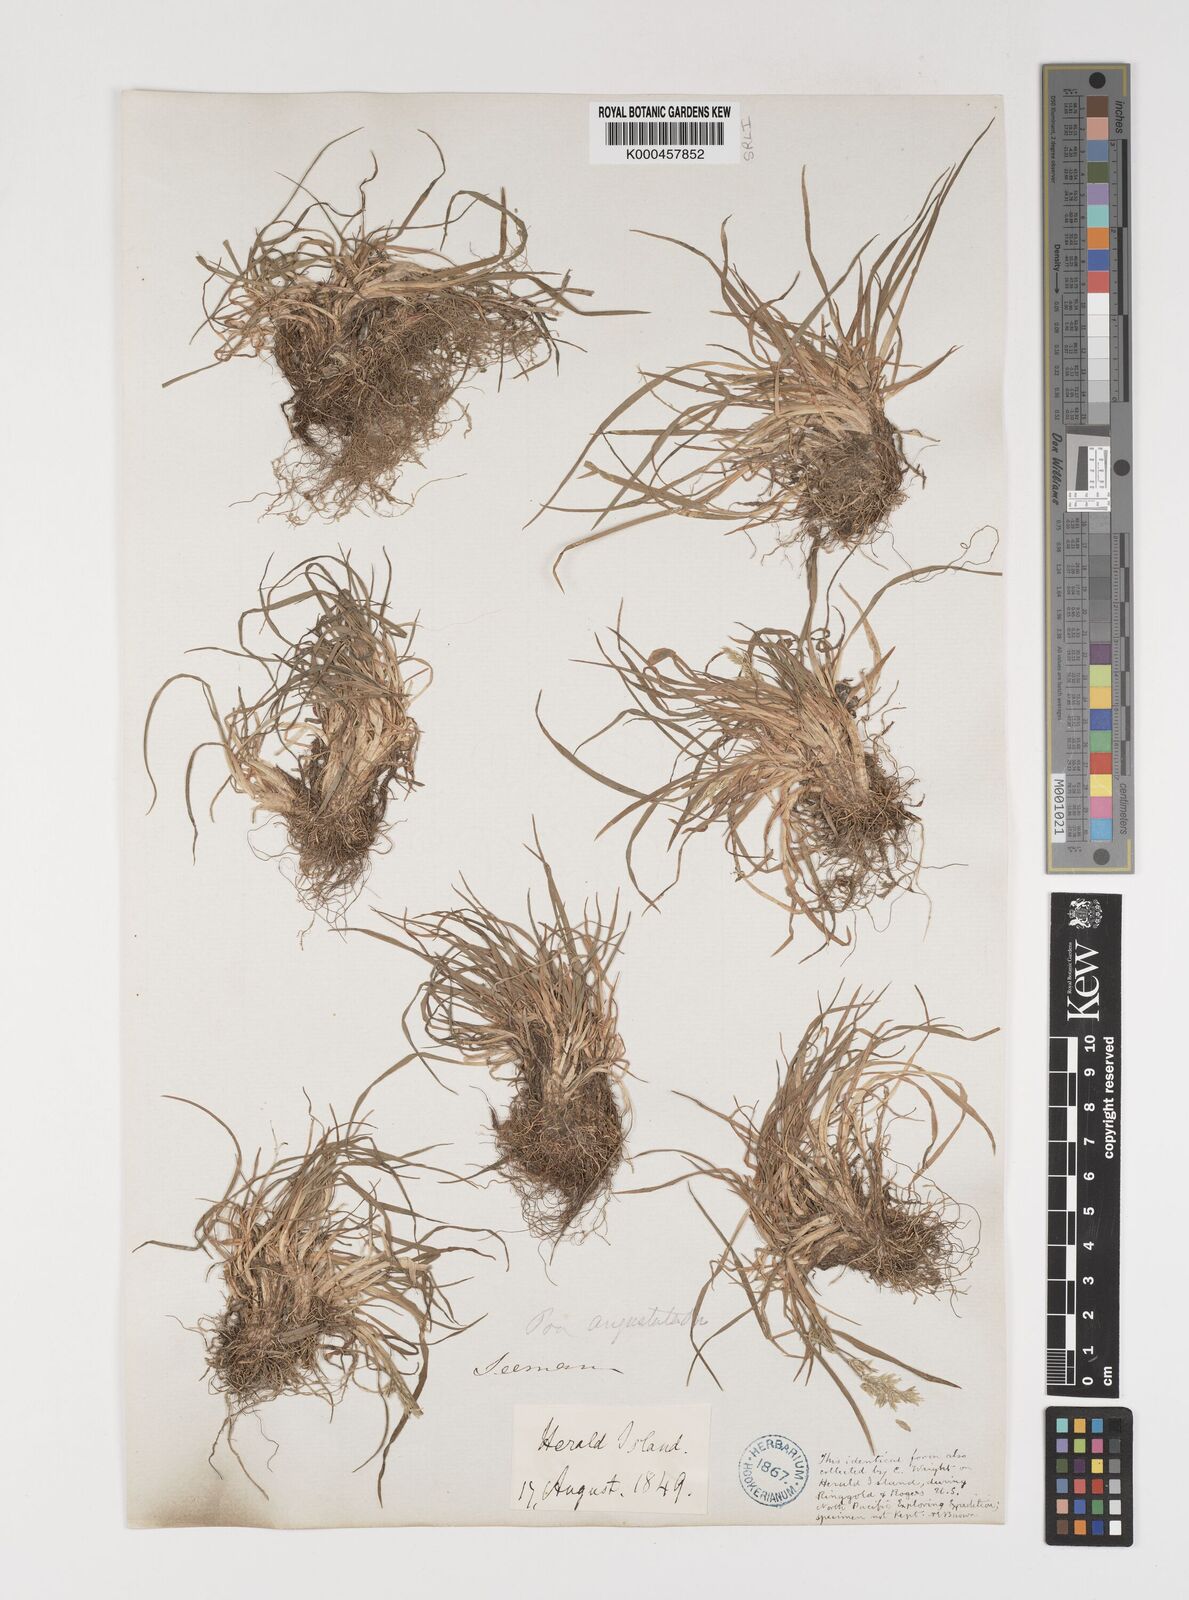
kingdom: Plantae
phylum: Tracheophyta
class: Liliopsida
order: Poales
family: Poaceae
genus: Puccinellia
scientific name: Puccinellia angustata
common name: Narrow alkaligrass
